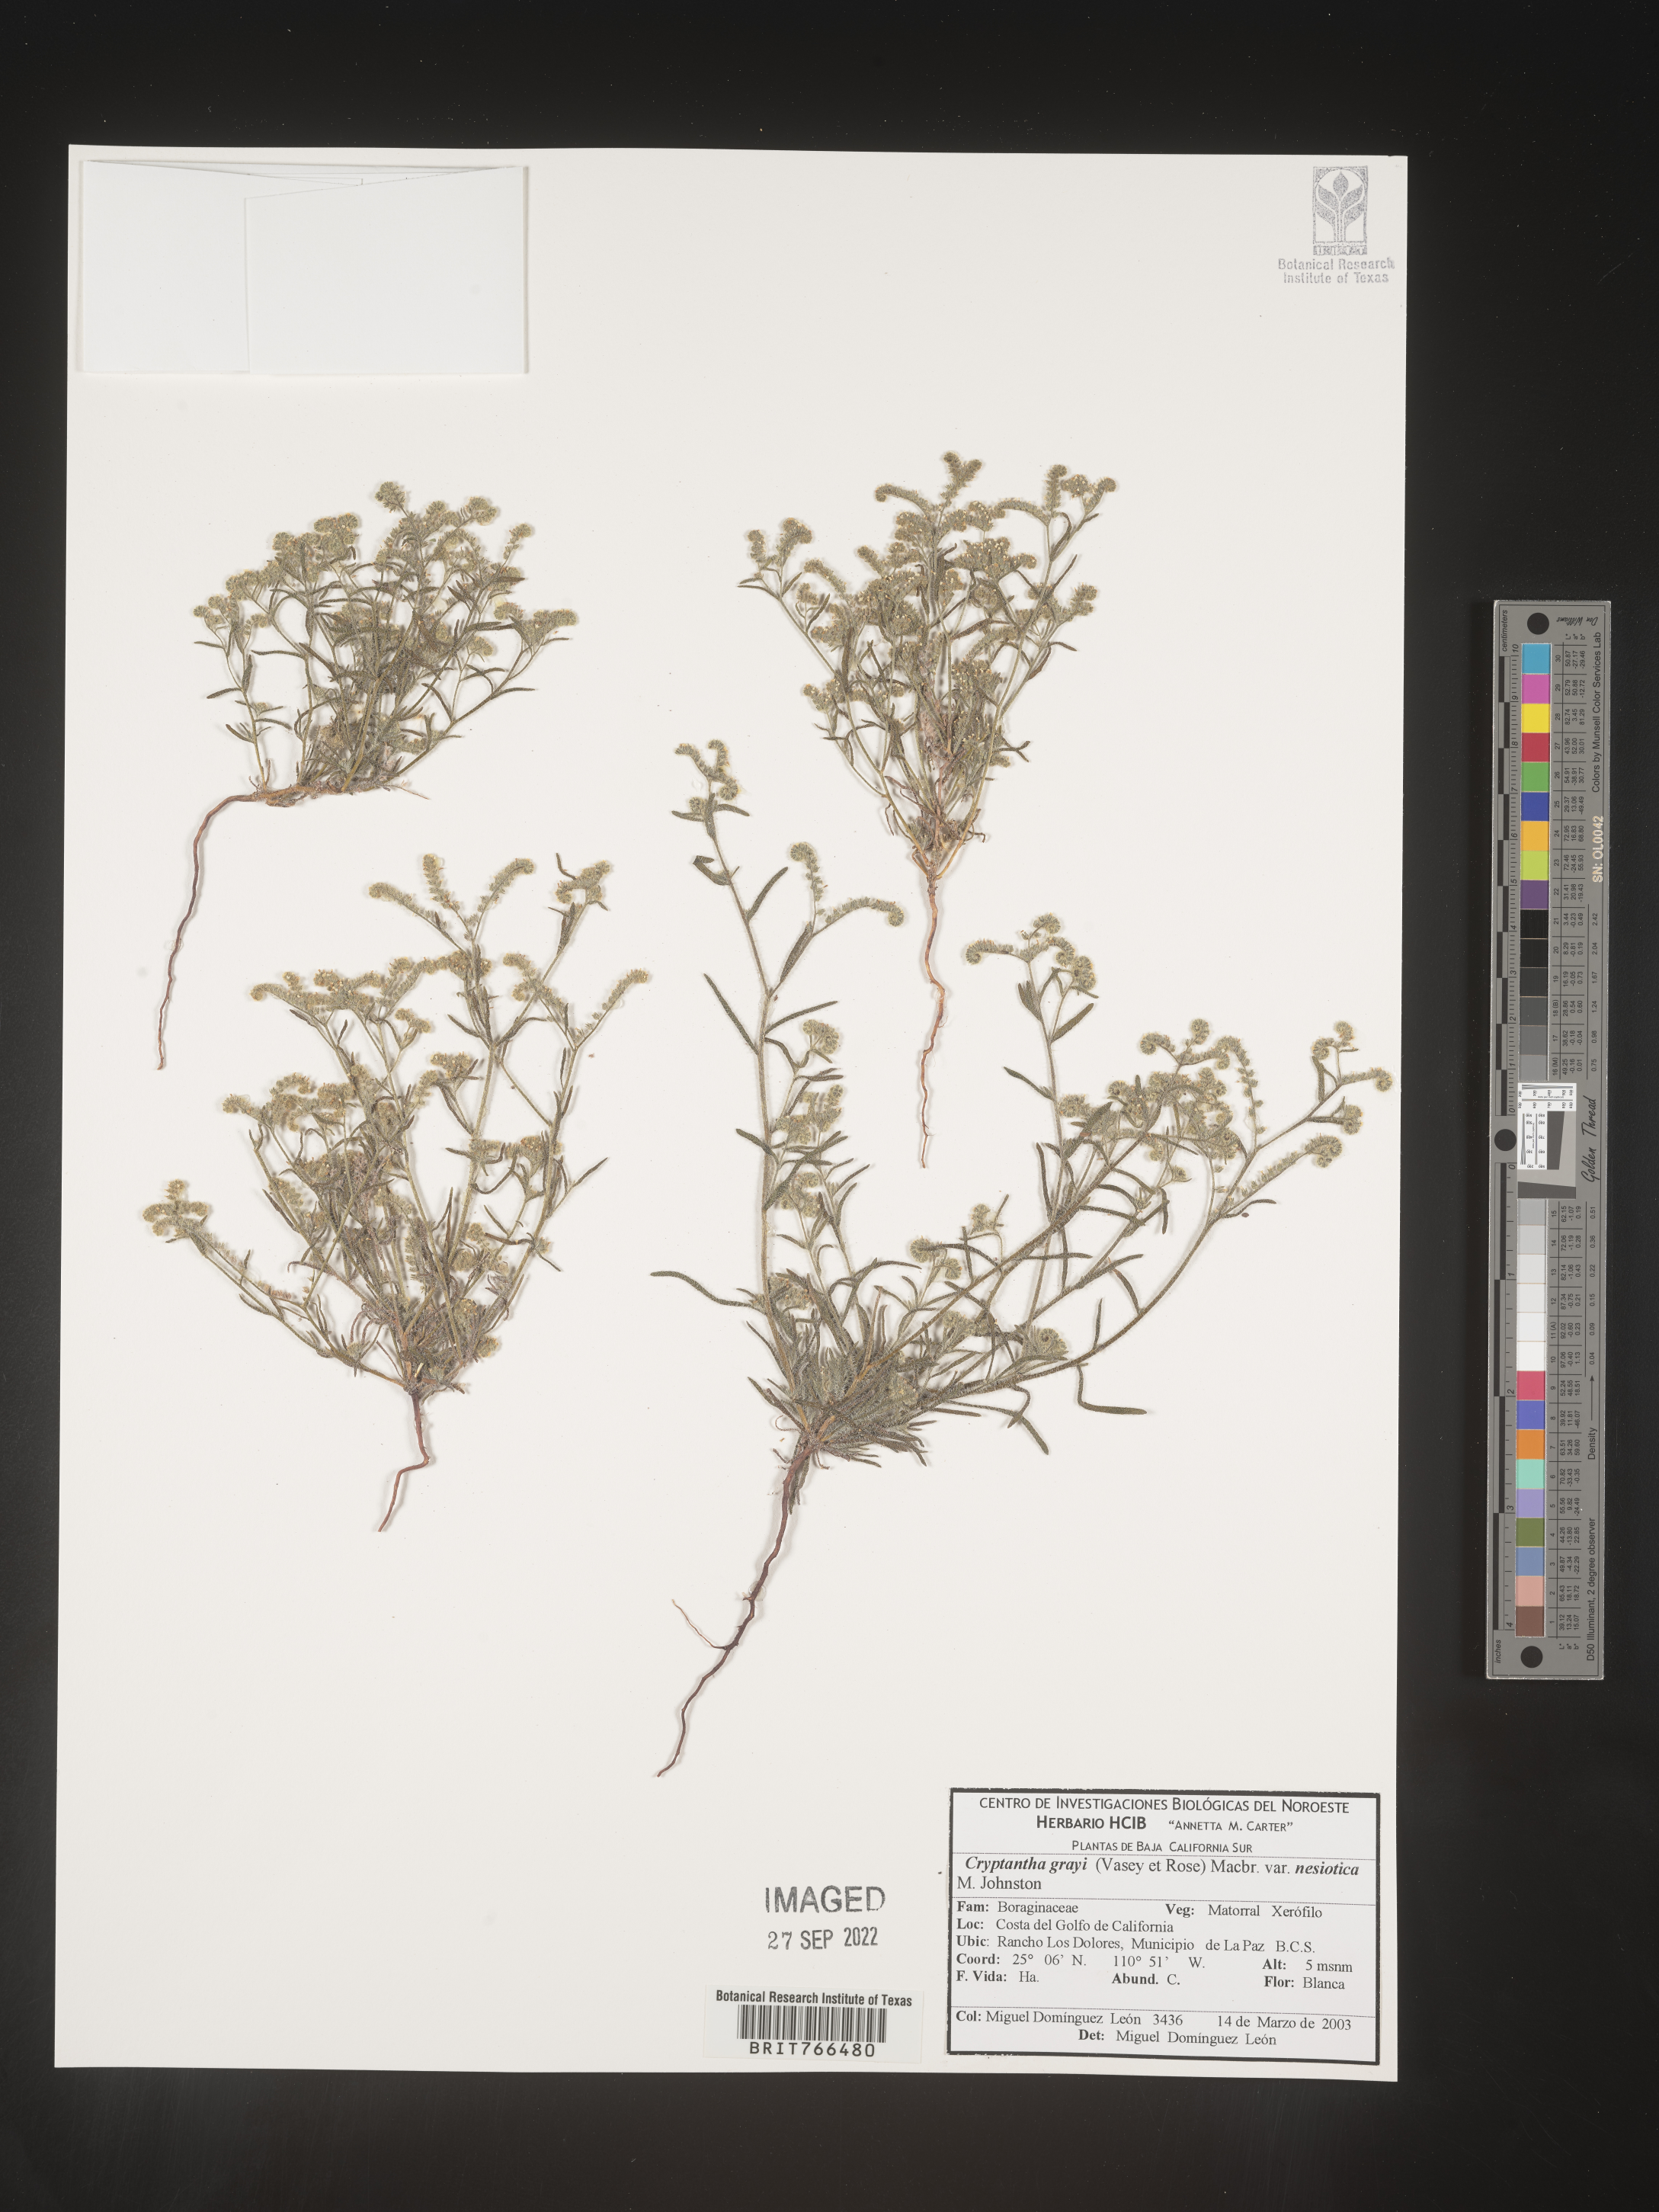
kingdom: Plantae
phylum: Tracheophyta
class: Magnoliopsida
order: Boraginales
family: Boraginaceae
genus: Cryptantha
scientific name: Cryptantha
